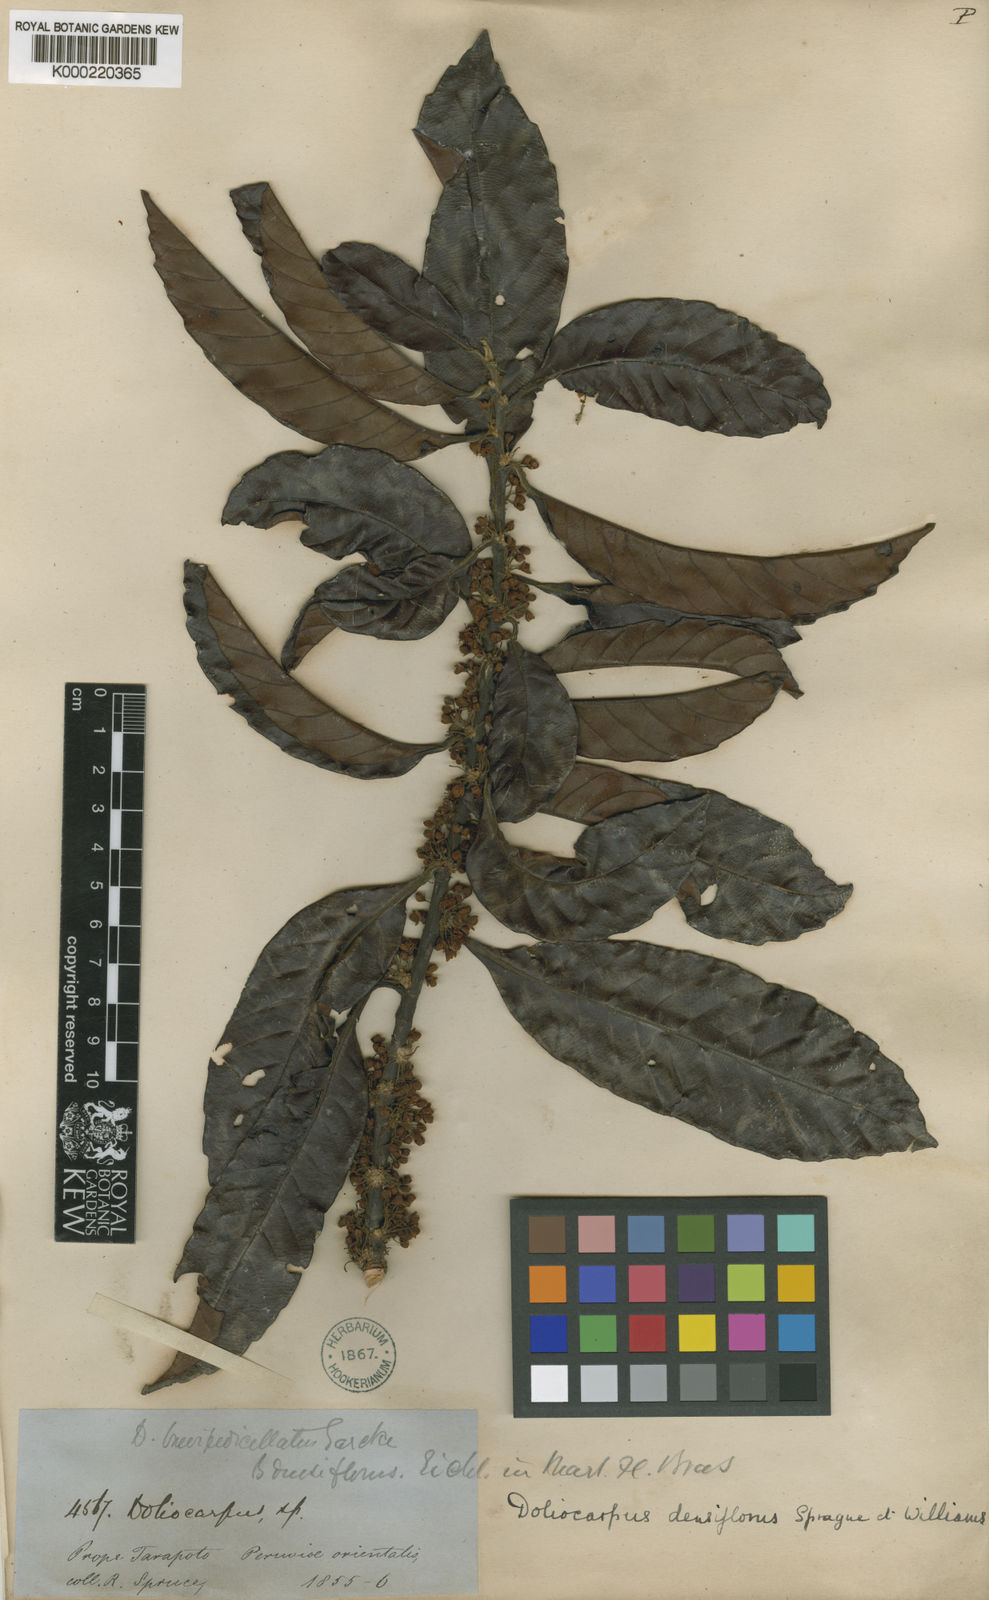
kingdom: Plantae
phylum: Tracheophyta
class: Magnoliopsida
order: Dilleniales
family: Dilleniaceae
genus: Doliocarpus
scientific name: Doliocarpus dentatus
